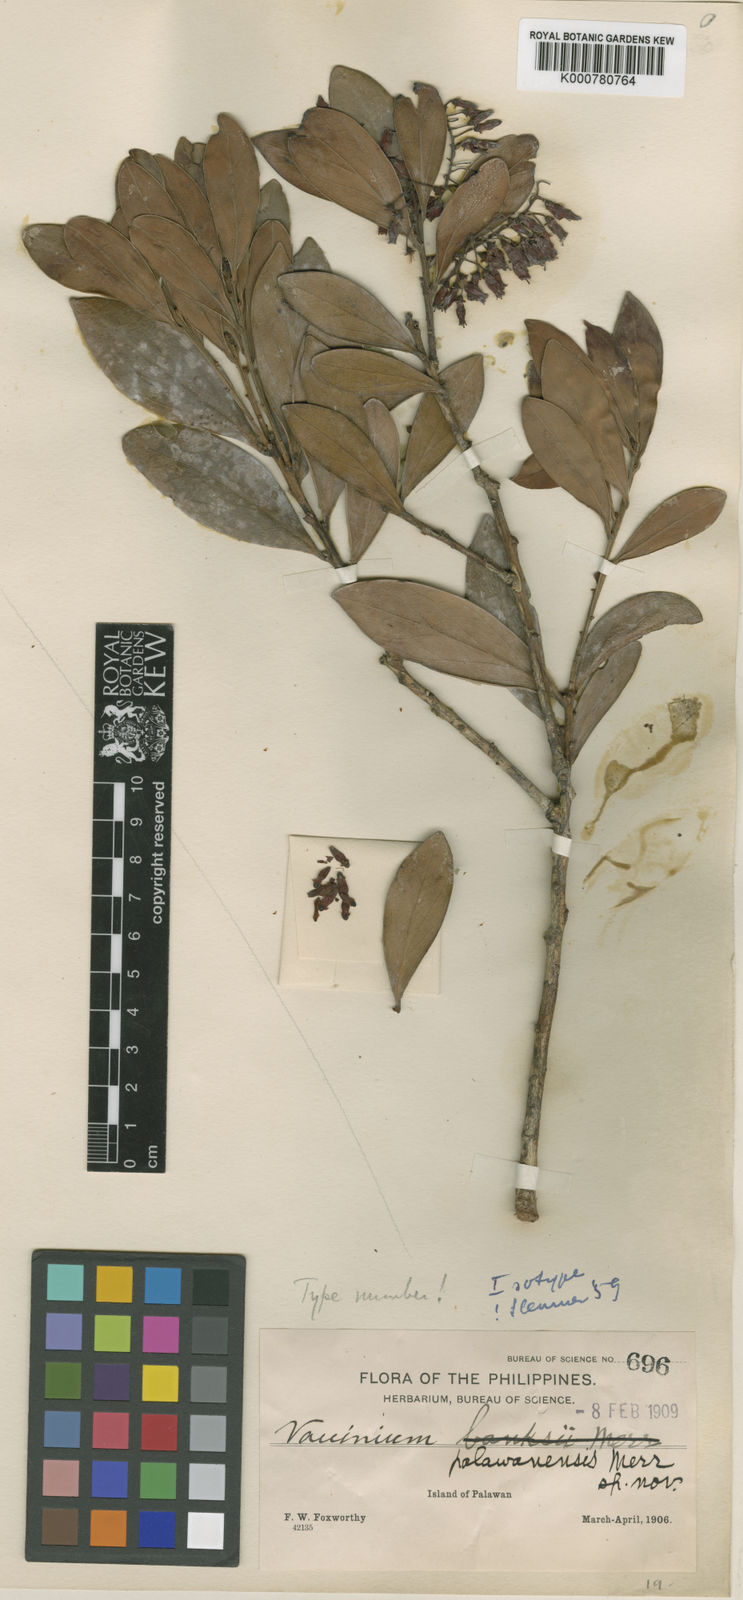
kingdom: Plantae
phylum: Tracheophyta
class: Magnoliopsida
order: Ericales
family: Ericaceae
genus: Vaccinium
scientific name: Vaccinium palawanense
